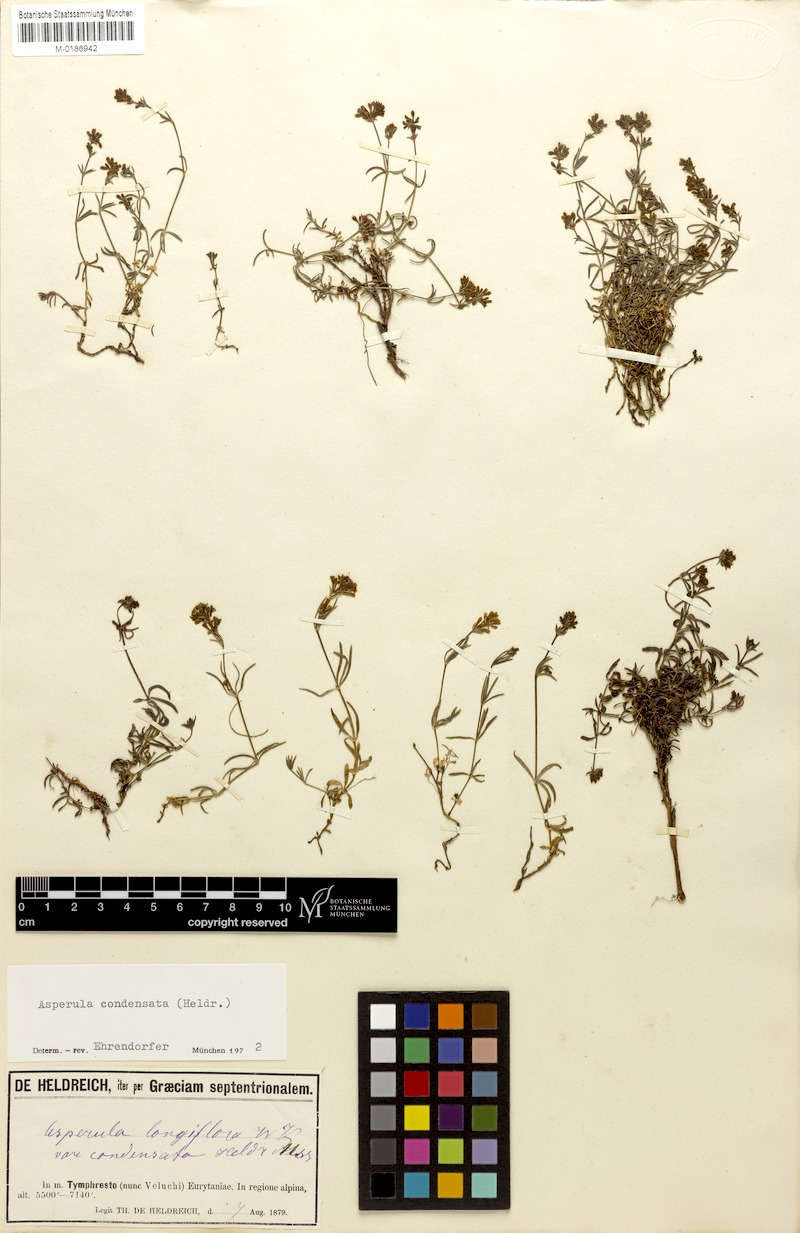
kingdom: Plantae
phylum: Tracheophyta
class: Magnoliopsida
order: Gentianales
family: Rubiaceae
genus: Cynanchica
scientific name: Cynanchica aristata
